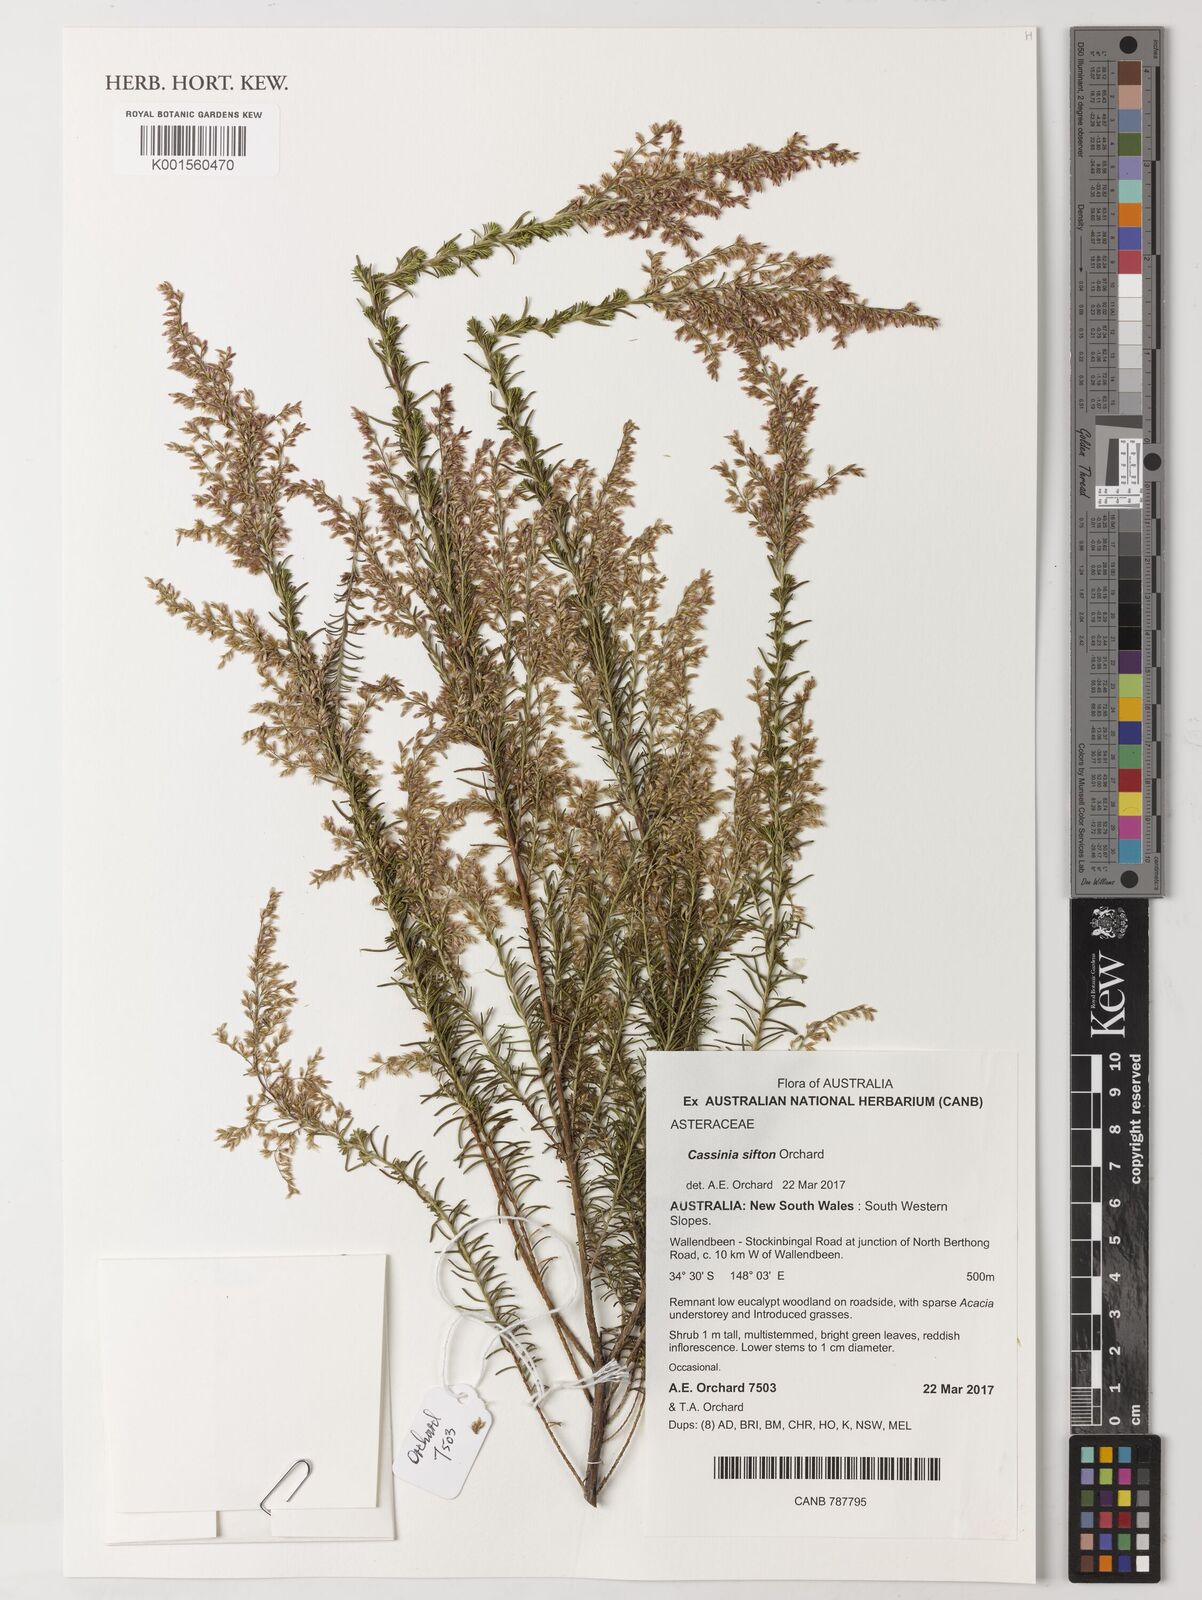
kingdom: Plantae
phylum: Tracheophyta
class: Magnoliopsida
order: Asterales
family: Asteraceae
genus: Cassinia
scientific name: Cassinia sifton
